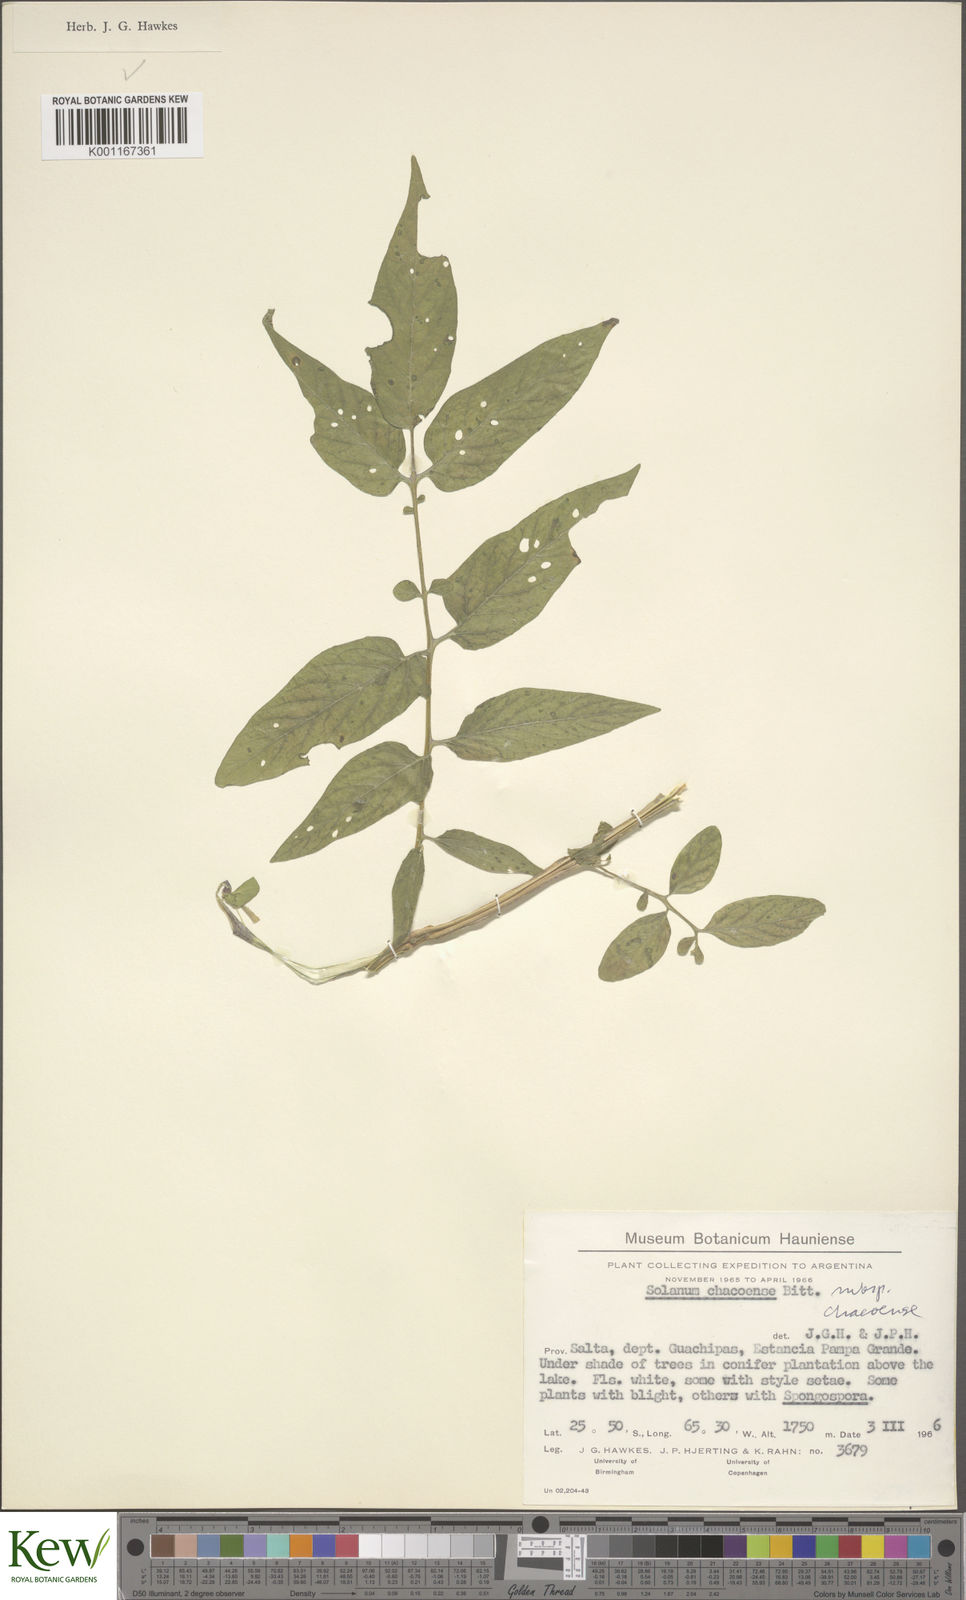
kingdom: Plantae
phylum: Tracheophyta
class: Magnoliopsida
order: Solanales
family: Solanaceae
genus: Solanum
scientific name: Solanum chacoense
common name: Chaco potato
